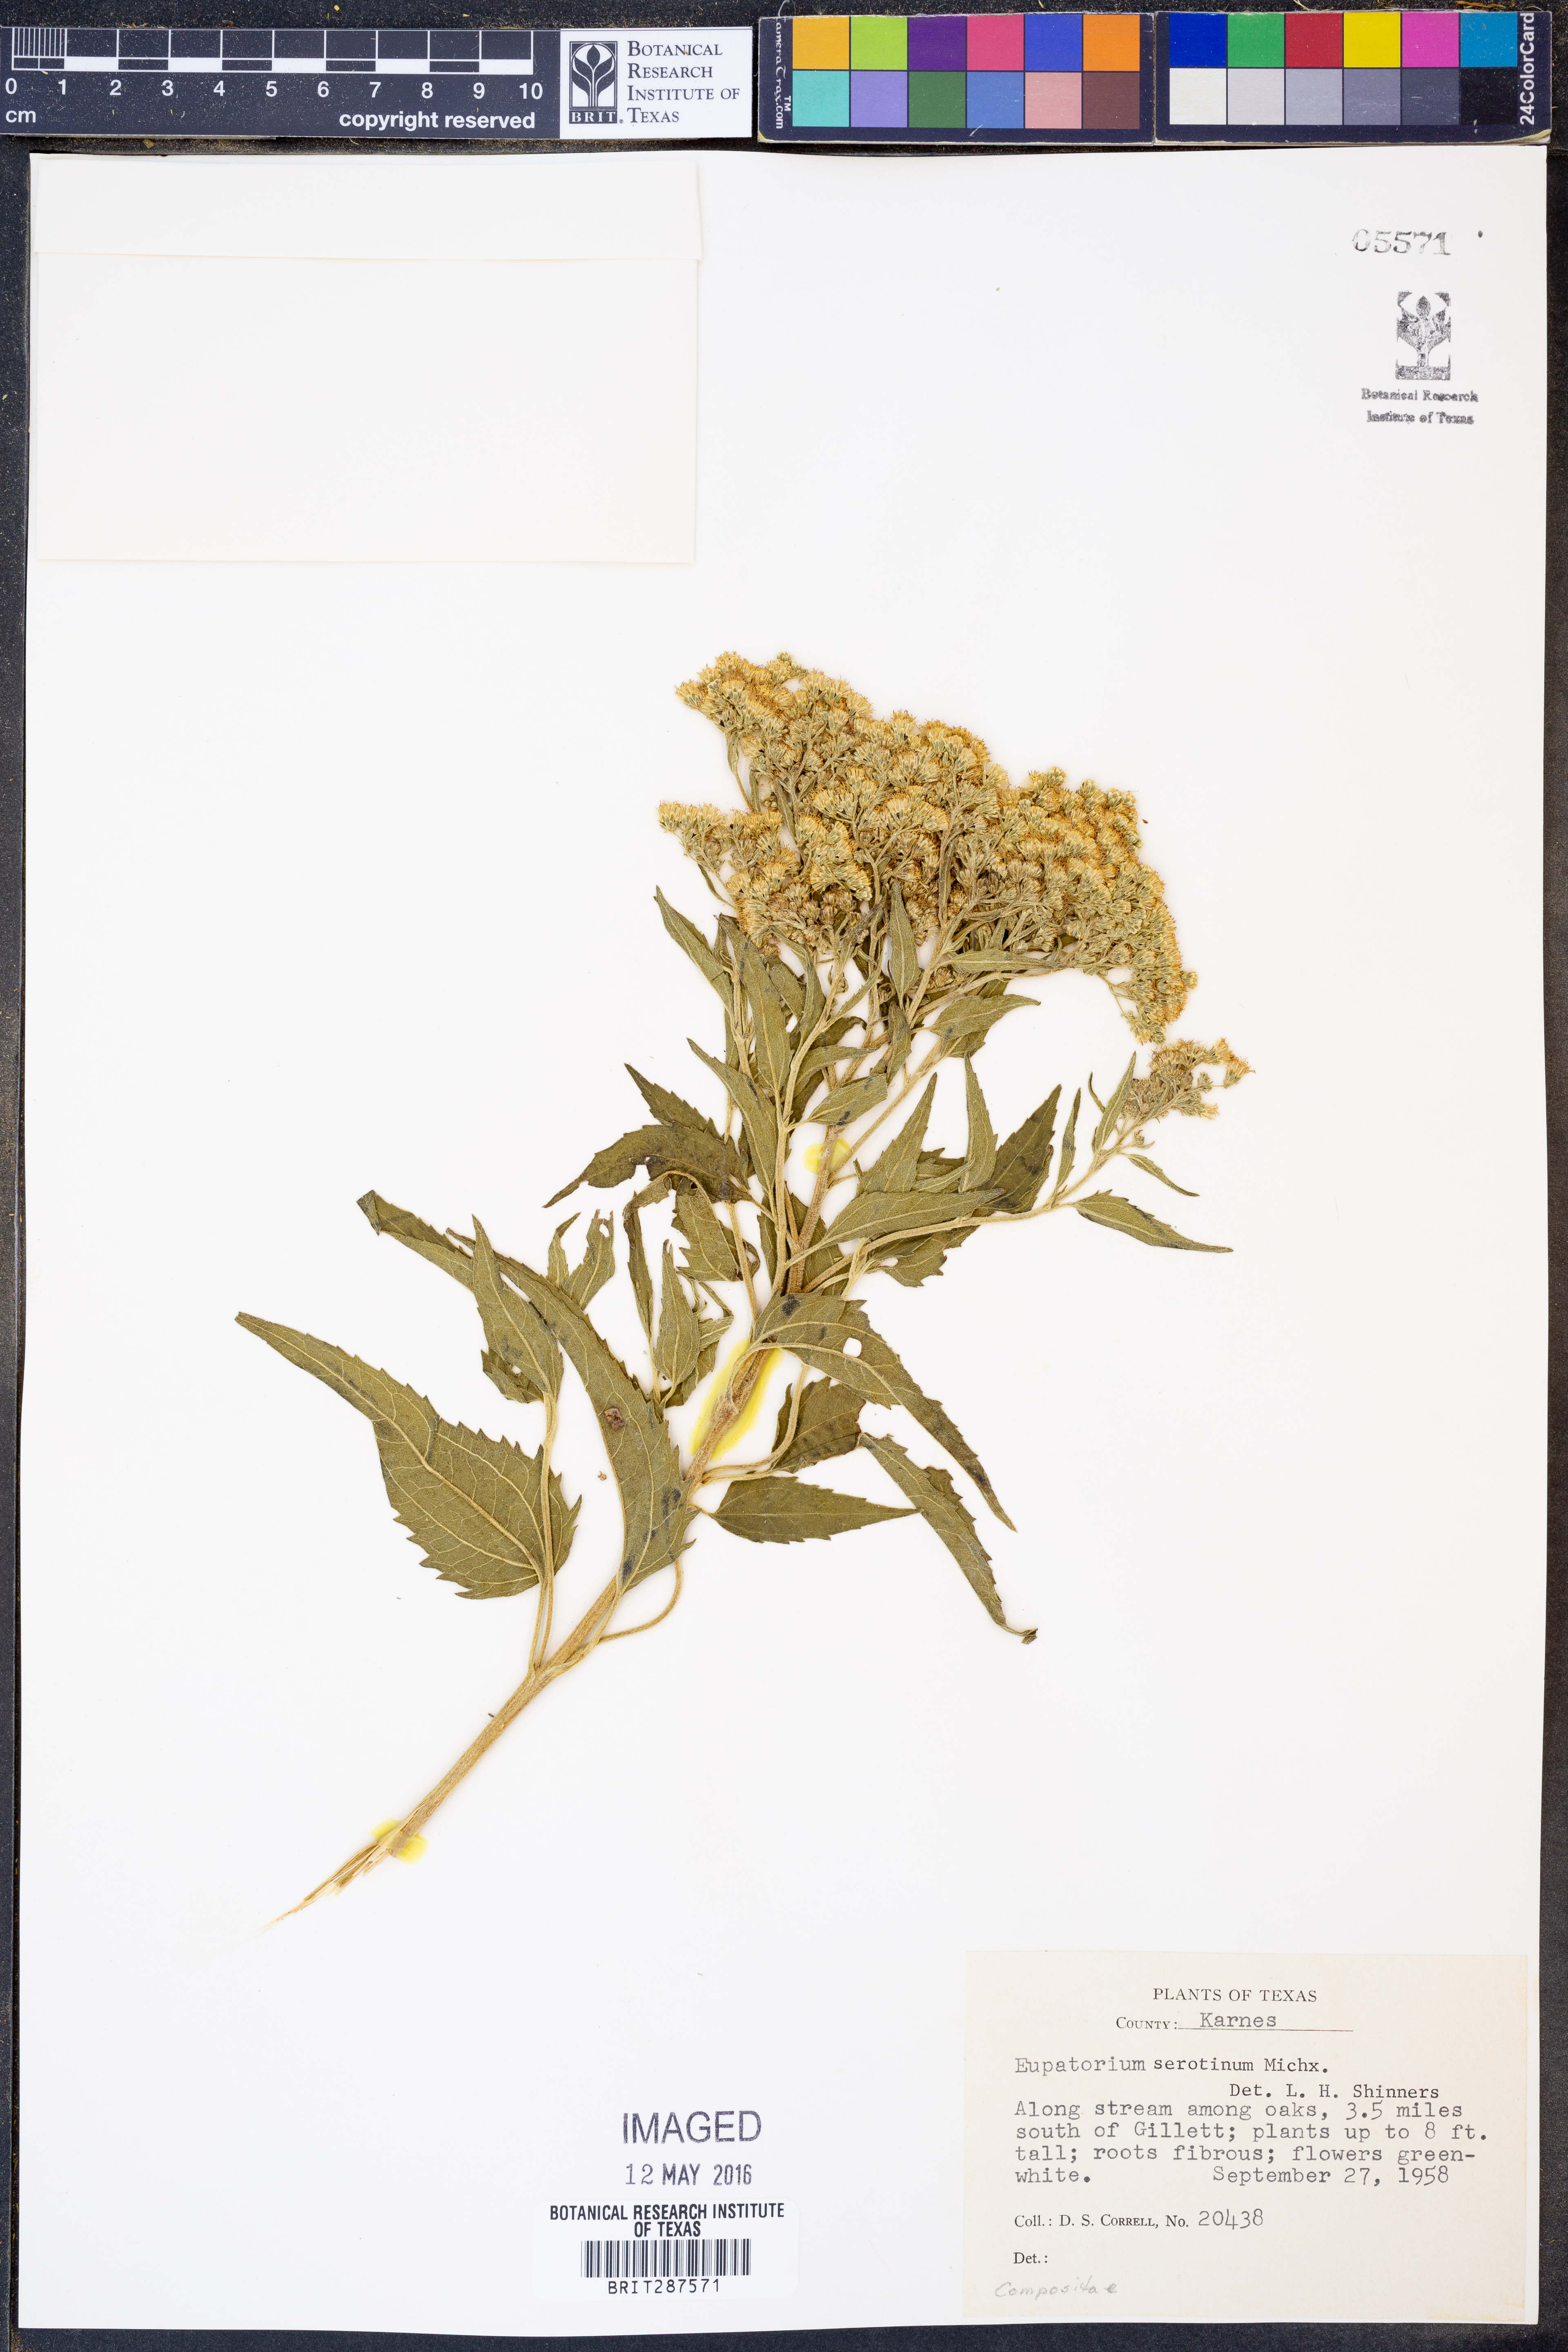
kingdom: Plantae
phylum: Tracheophyta
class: Magnoliopsida
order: Asterales
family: Asteraceae
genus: Eupatorium
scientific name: Eupatorium serotinum
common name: Late boneset
